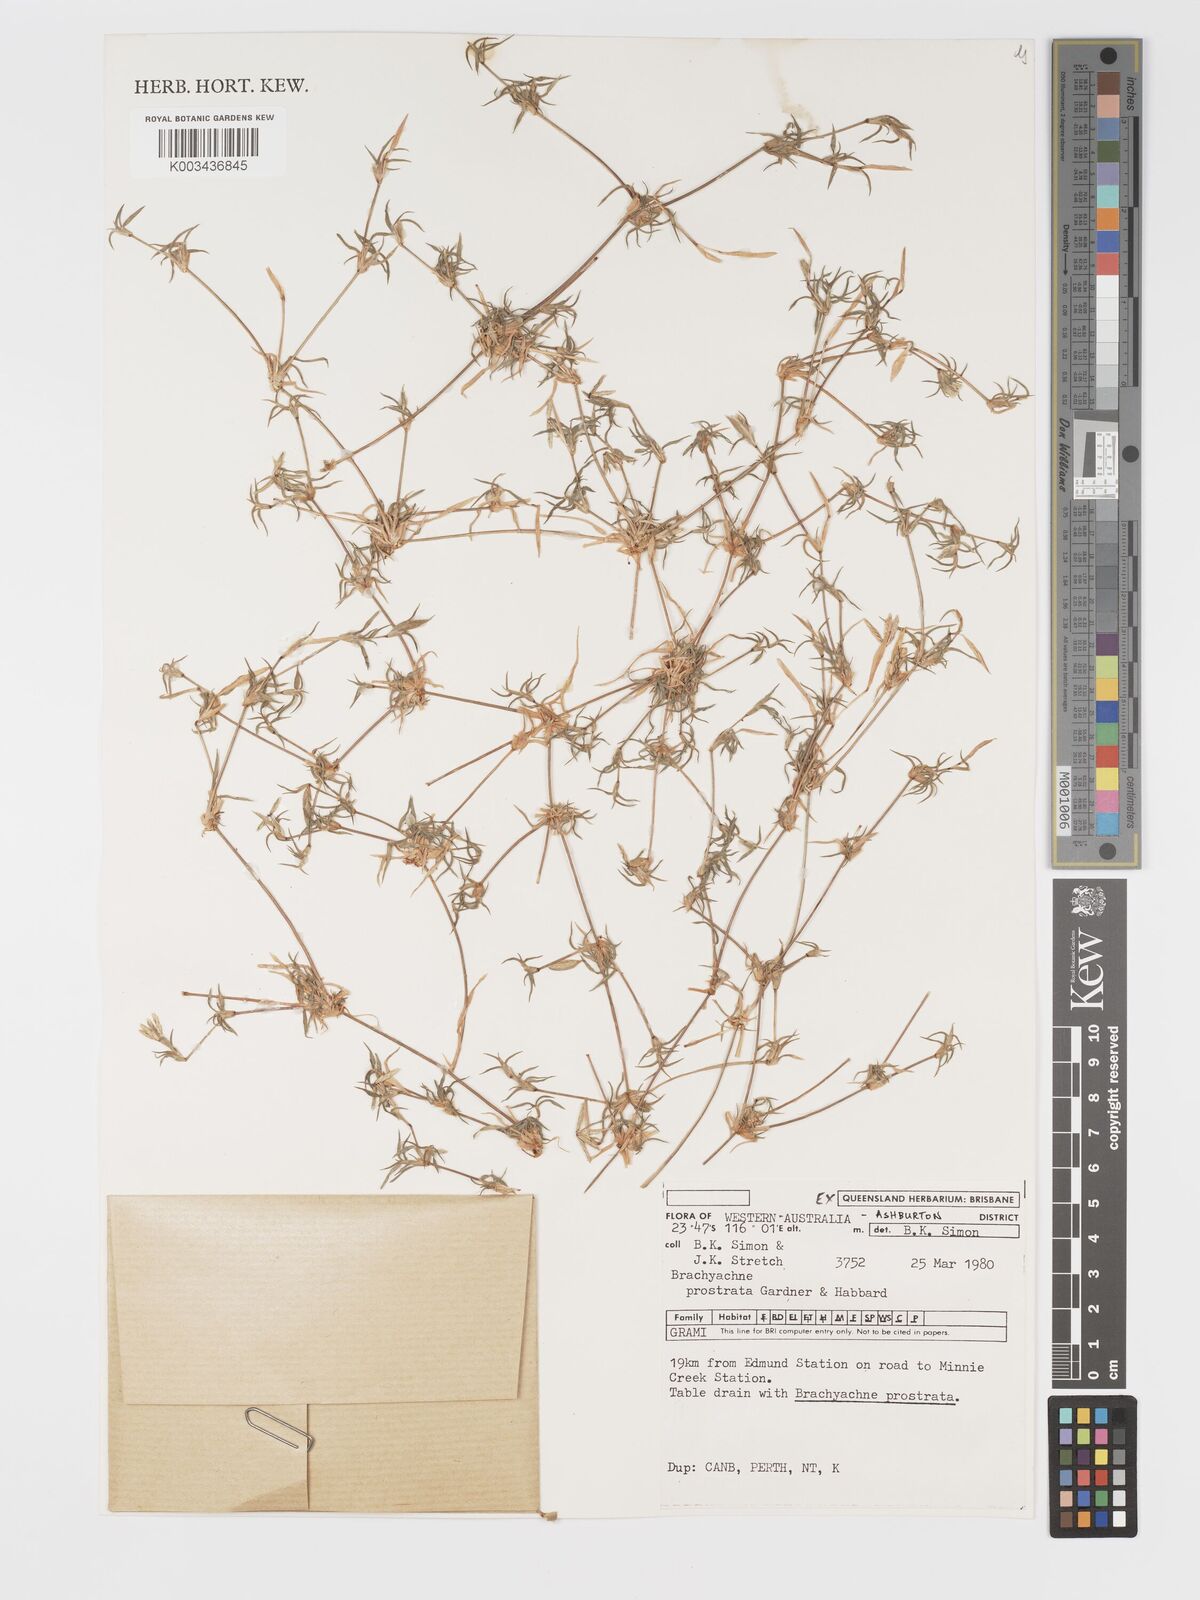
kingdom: Plantae
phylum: Tracheophyta
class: Liliopsida
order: Poales
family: Poaceae
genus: Cynodon
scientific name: Cynodon prostratus
